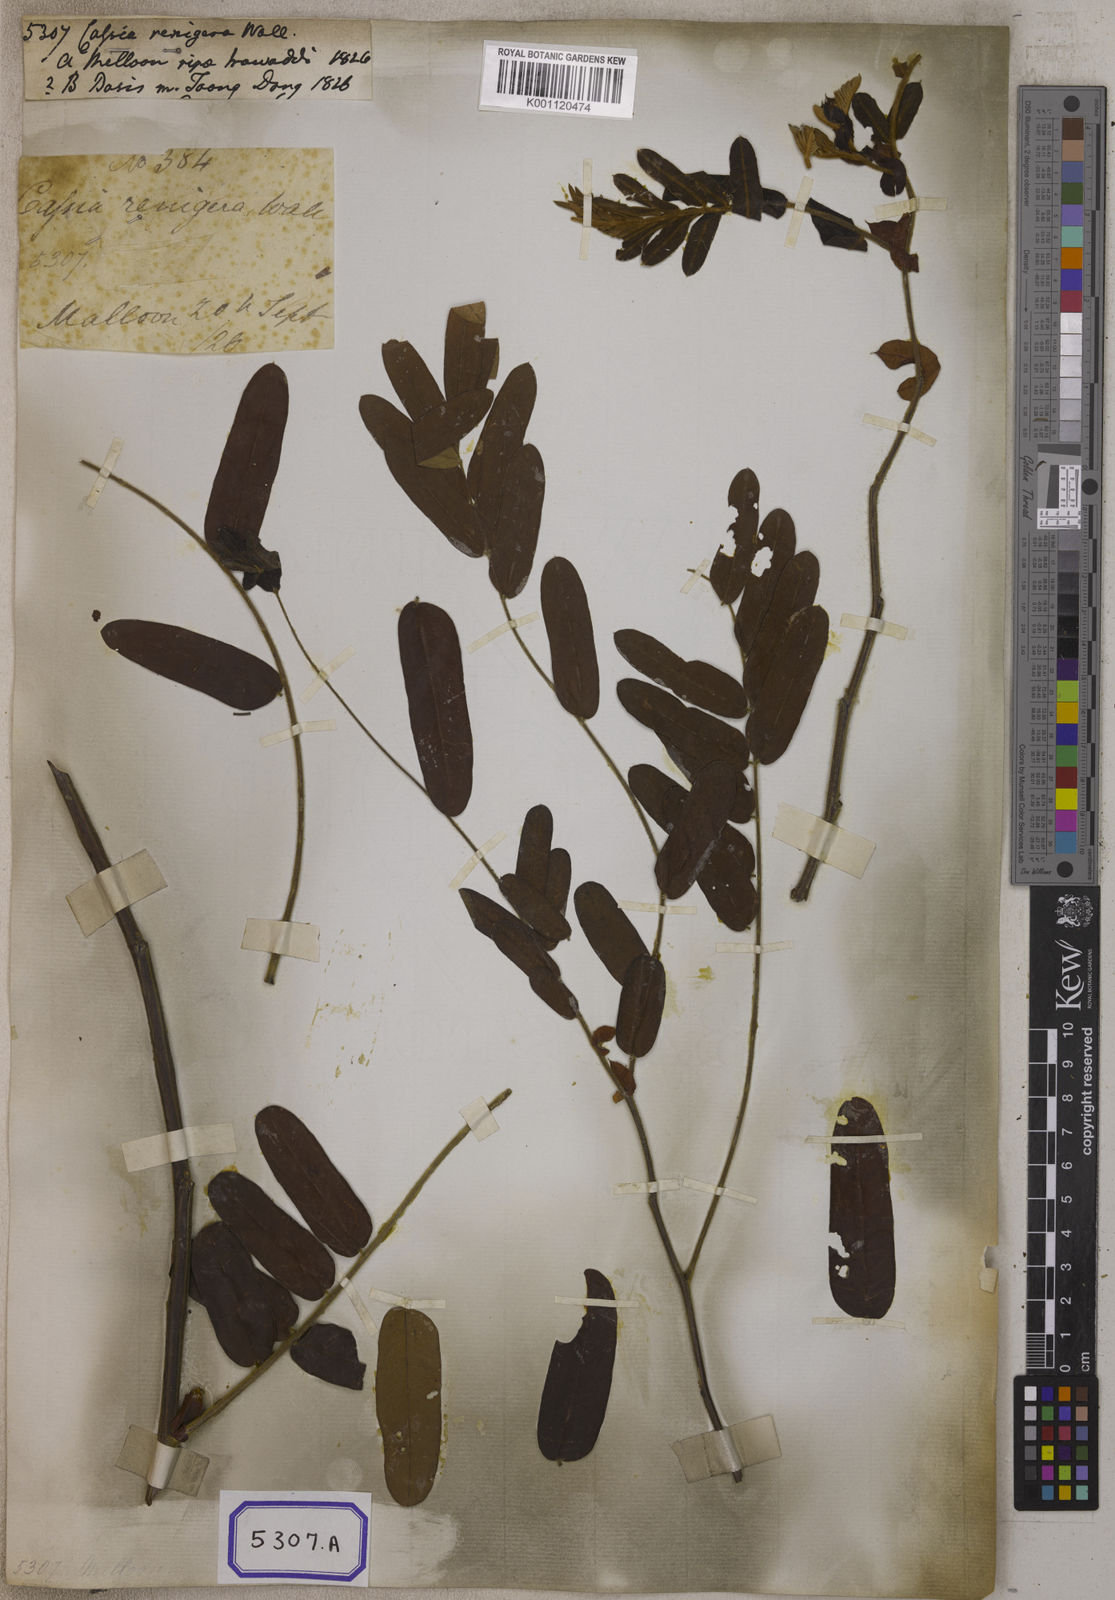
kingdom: Plantae
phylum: Tracheophyta
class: Magnoliopsida
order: Fabales
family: Fabaceae
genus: Cassia
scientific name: Cassia
